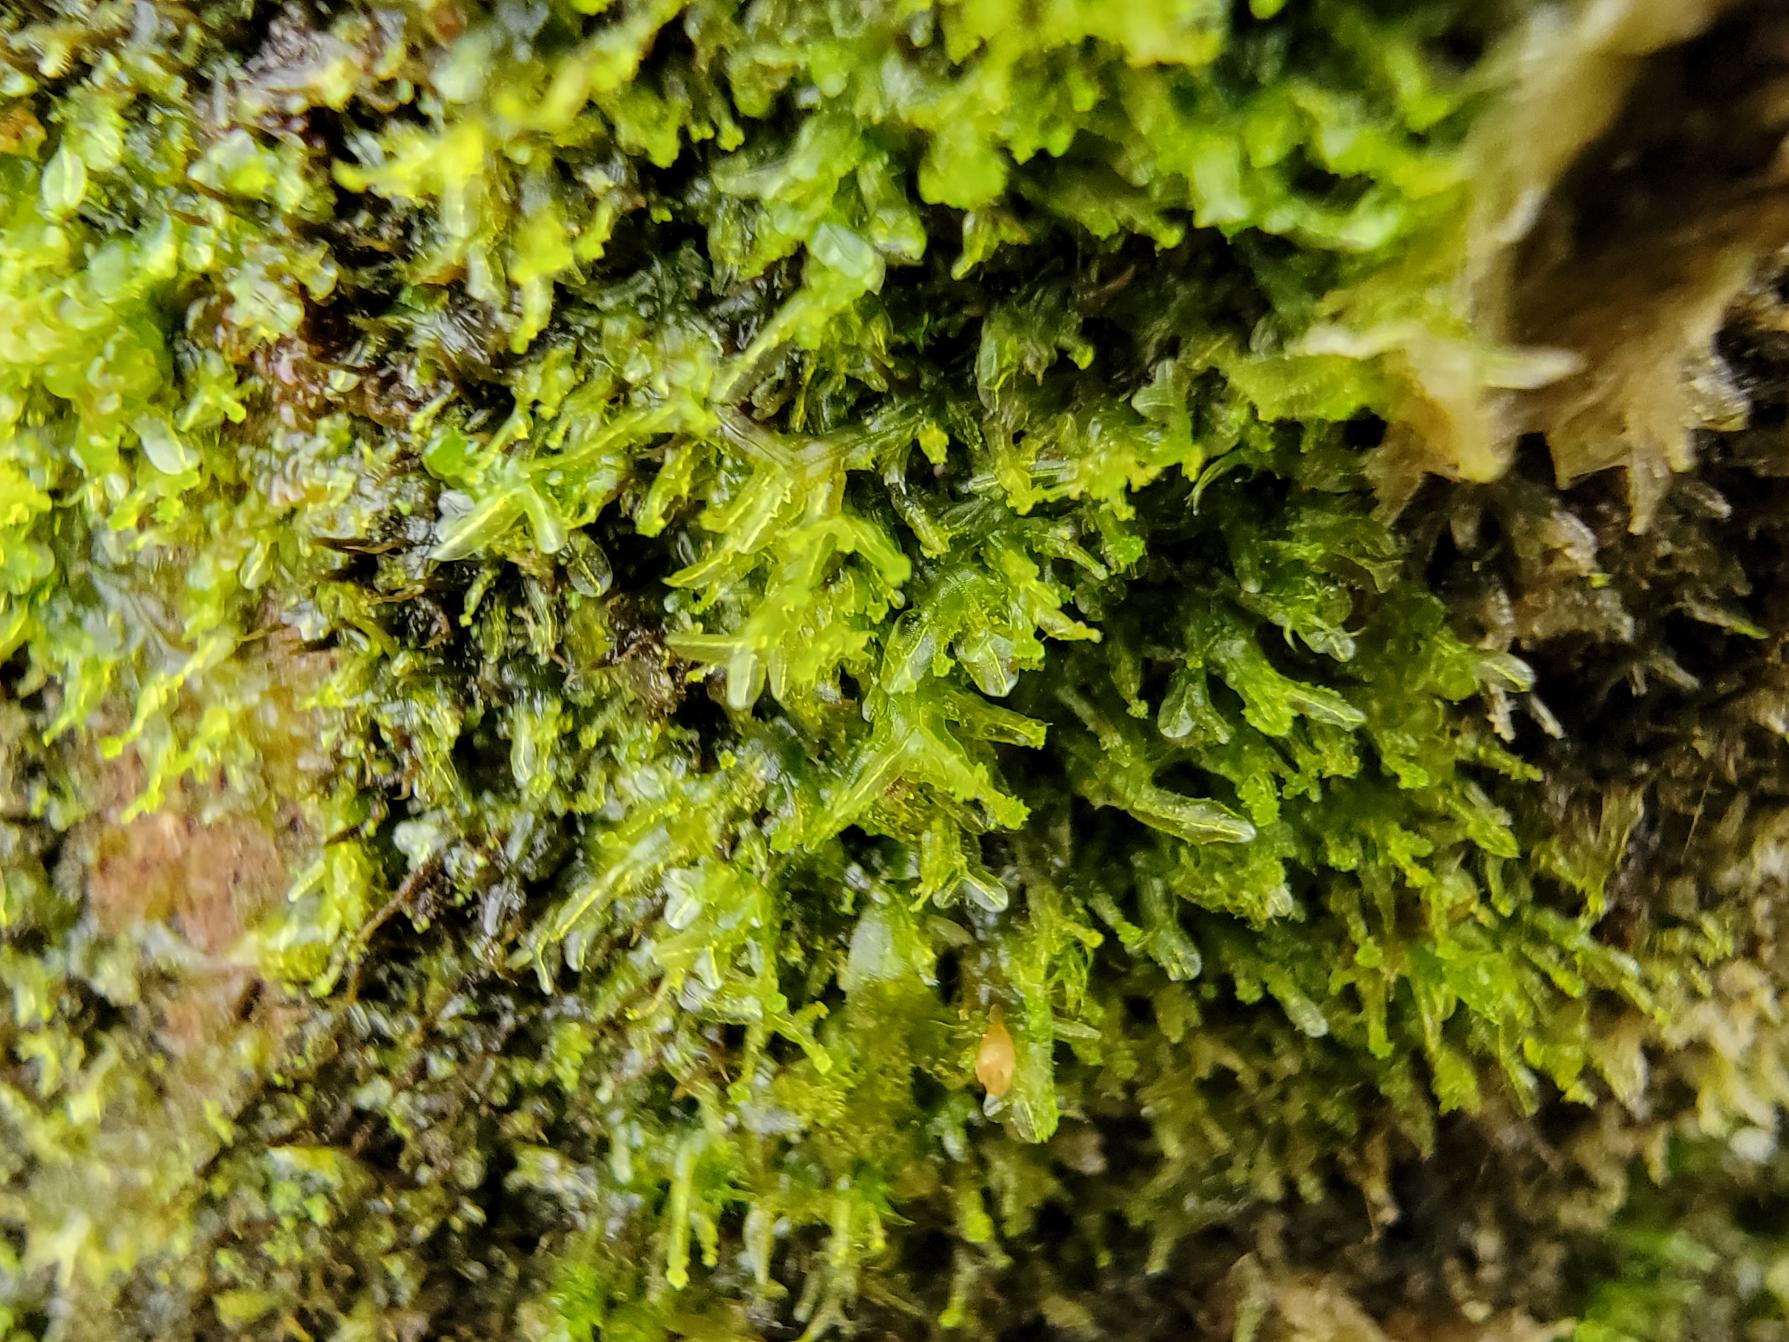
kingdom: Plantae
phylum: Marchantiophyta
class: Jungermanniopsida
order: Metzgeriales
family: Aneuraceae
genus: Riccardia
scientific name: Riccardia palmata
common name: Blågrøn gaffelløv
